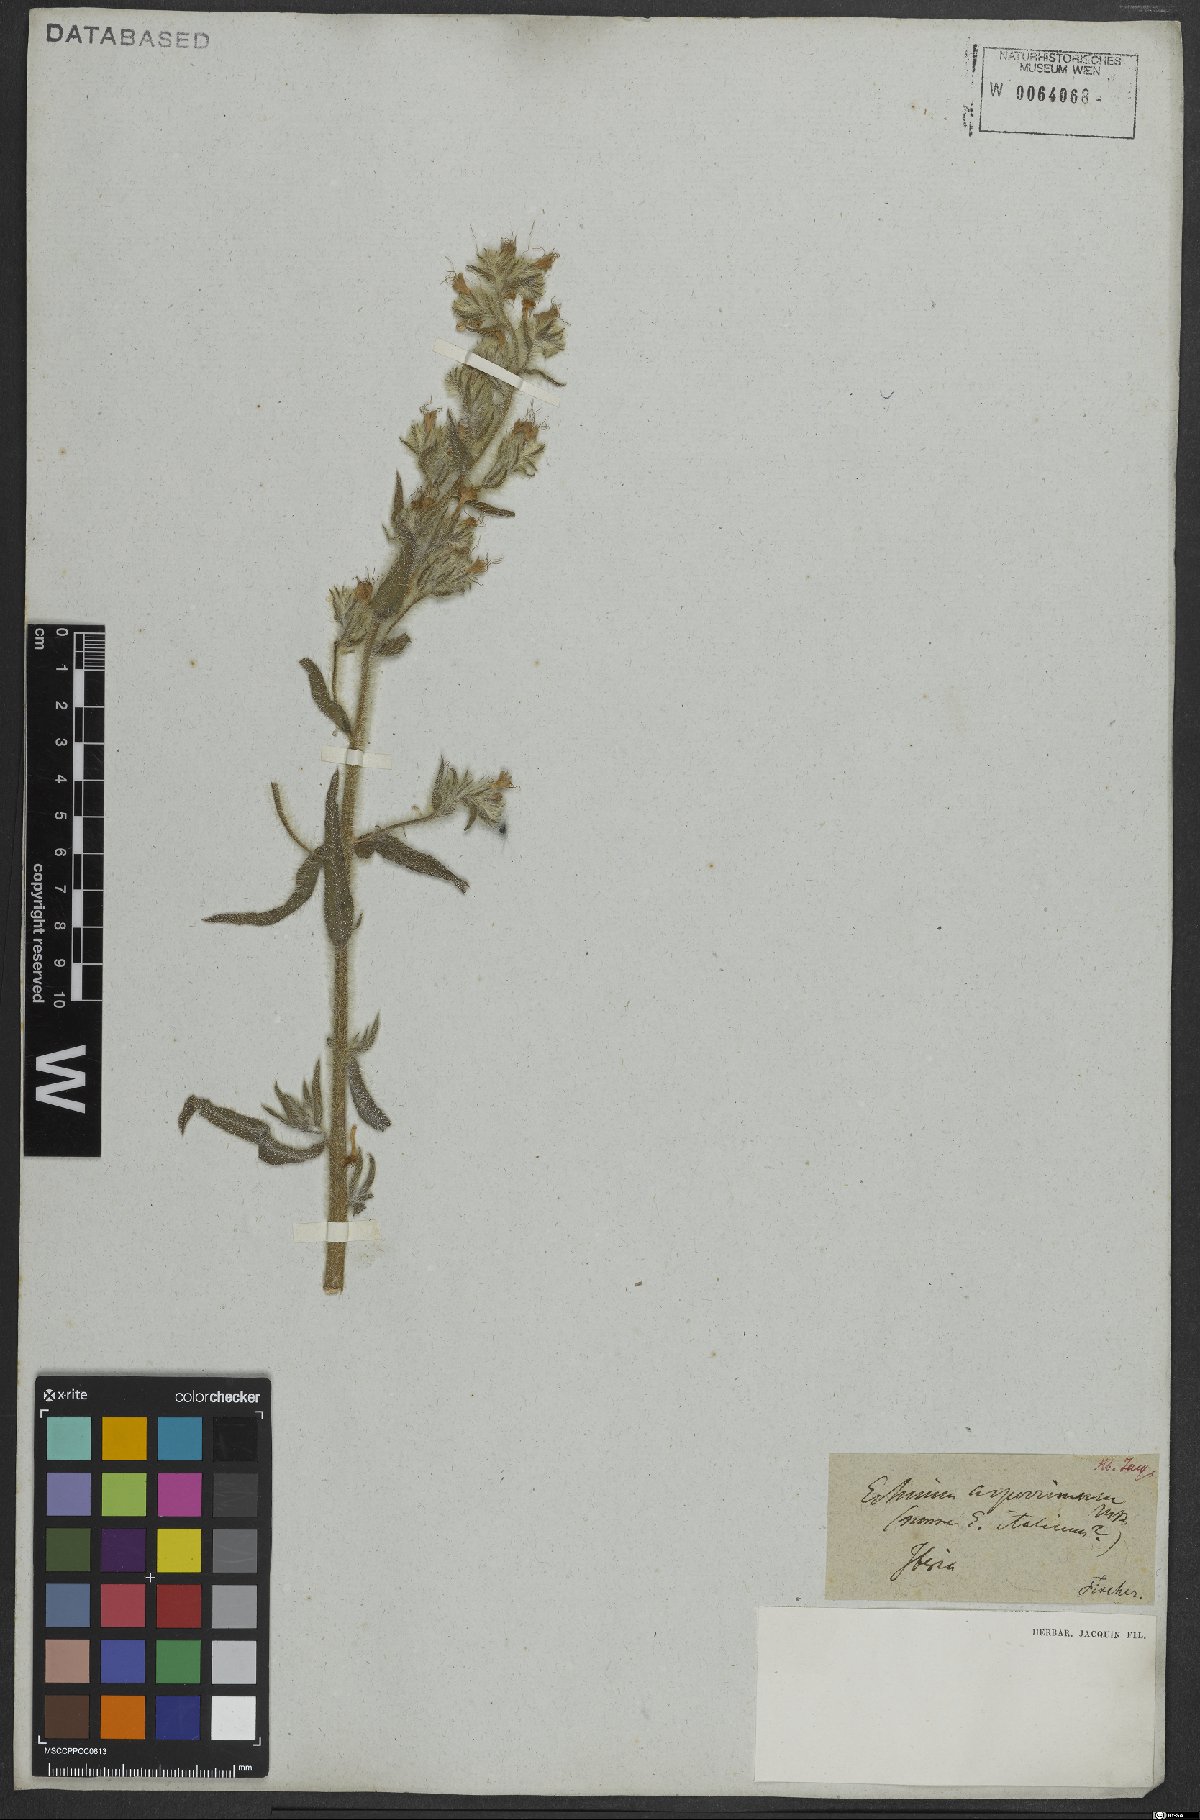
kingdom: Plantae
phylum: Tracheophyta
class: Magnoliopsida
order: Boraginales
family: Boraginaceae
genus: Echium
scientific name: Echium italicum
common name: Italian viper's bugloss
